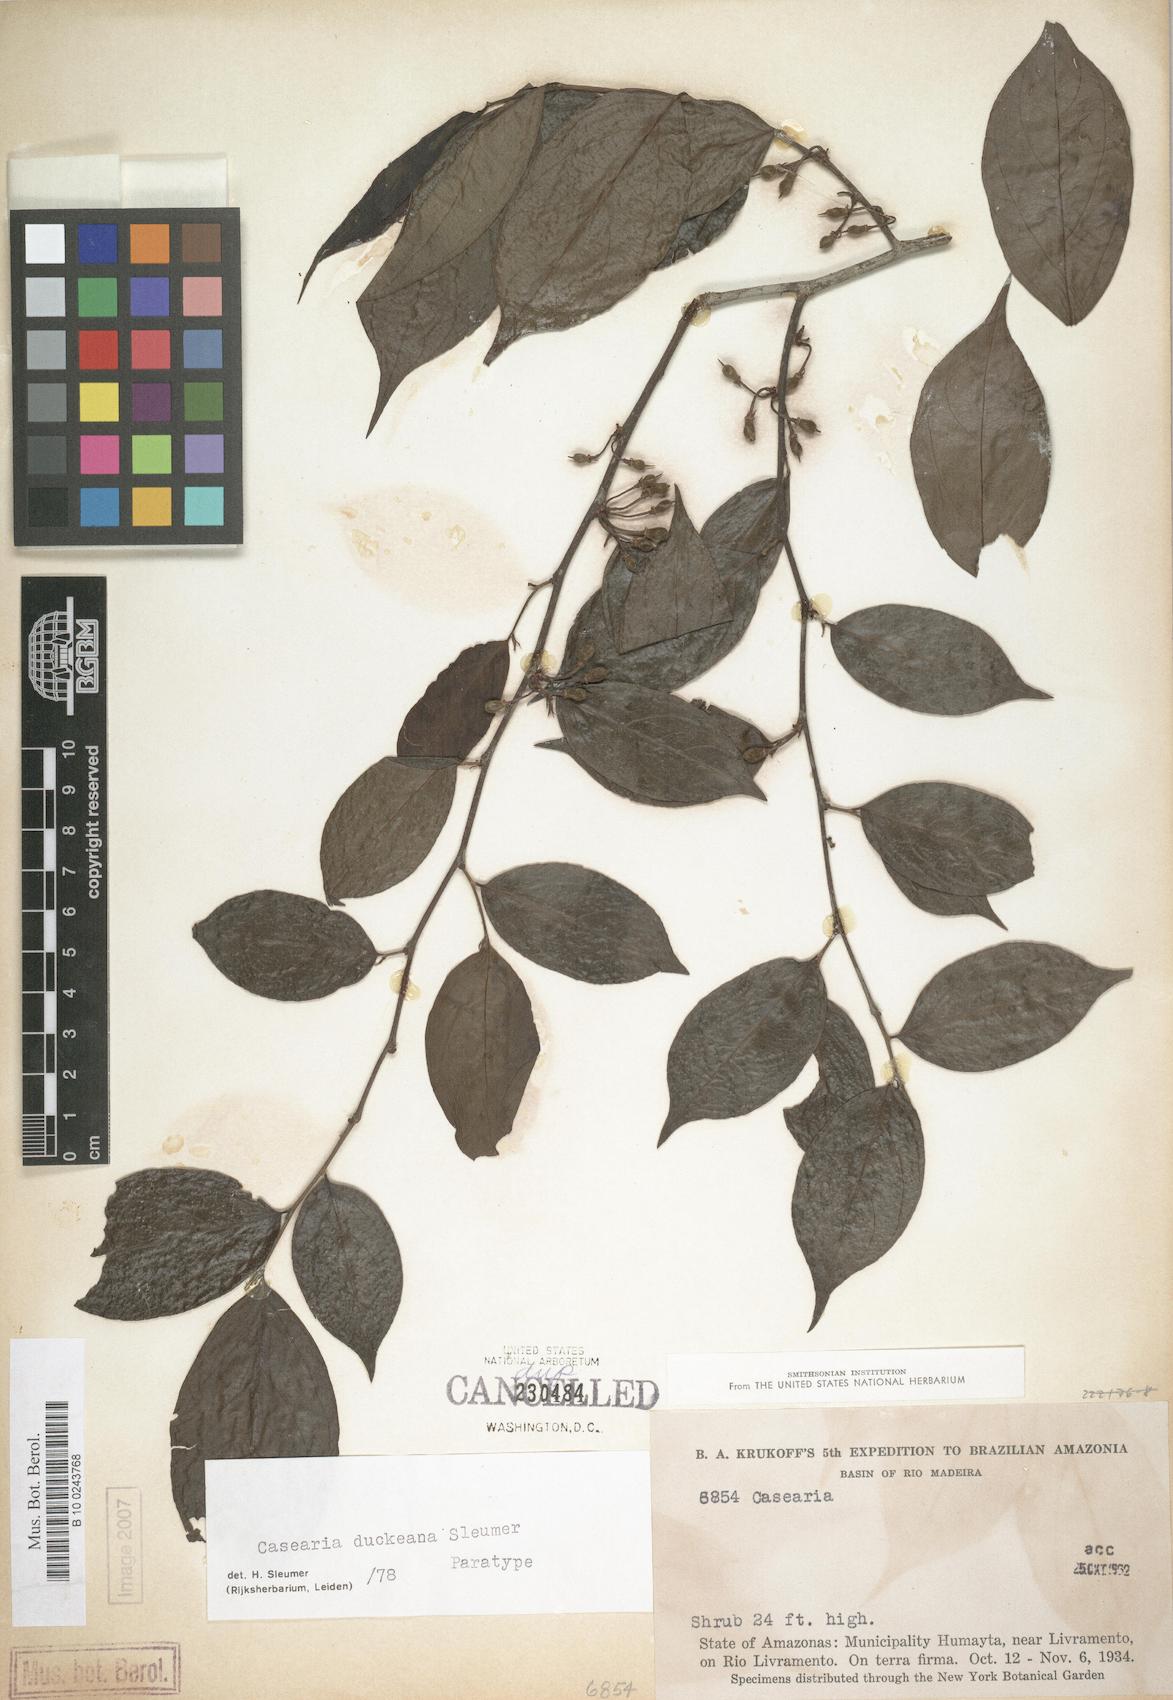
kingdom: Plantae
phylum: Tracheophyta
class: Magnoliopsida
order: Malpighiales
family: Salicaceae
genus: Casearia
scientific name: Casearia duckeana
